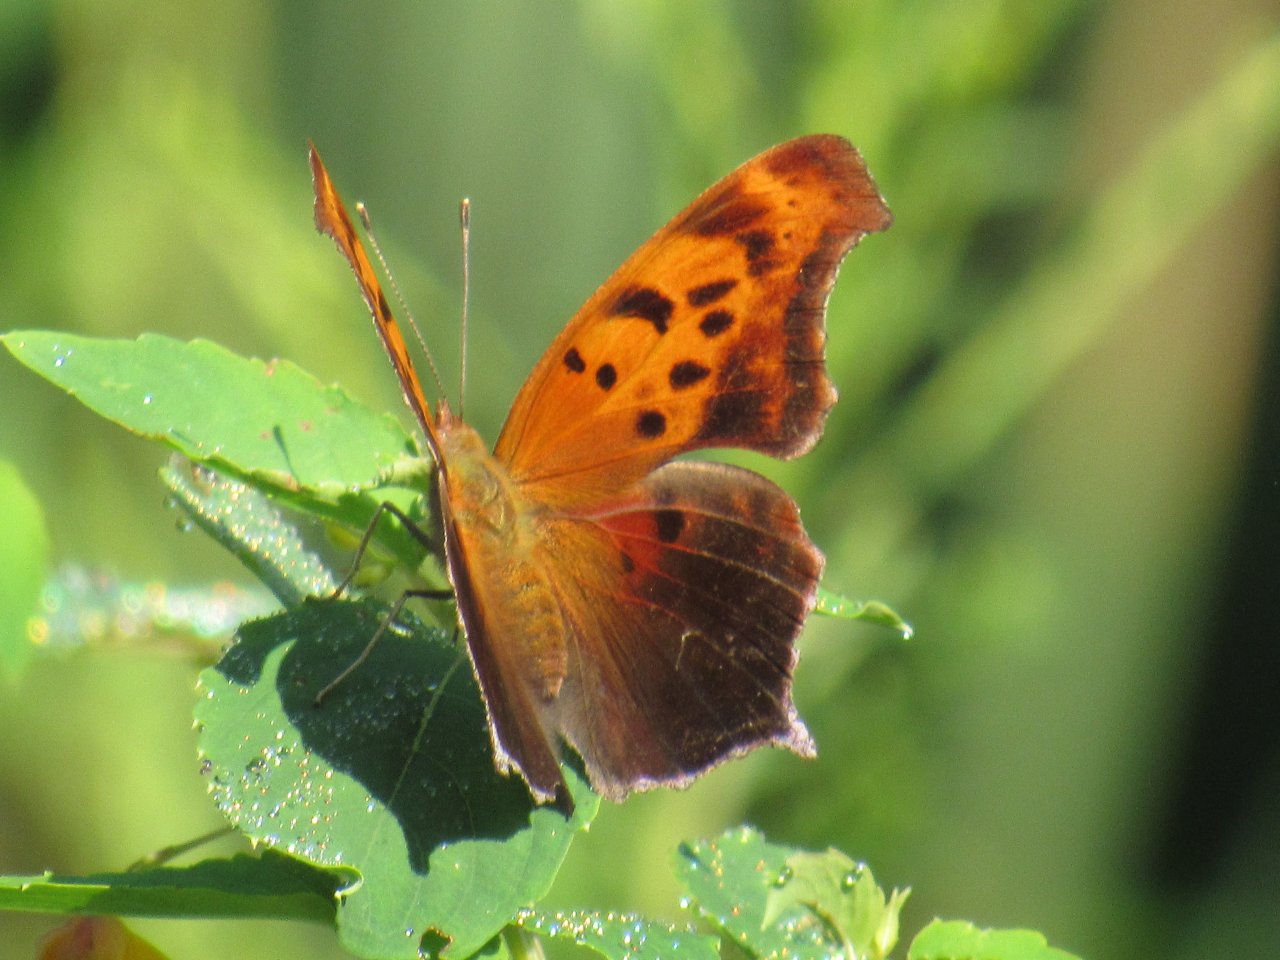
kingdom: Animalia
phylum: Arthropoda
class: Insecta
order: Lepidoptera
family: Nymphalidae
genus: Polygonia
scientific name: Polygonia interrogationis
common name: Question Mark
